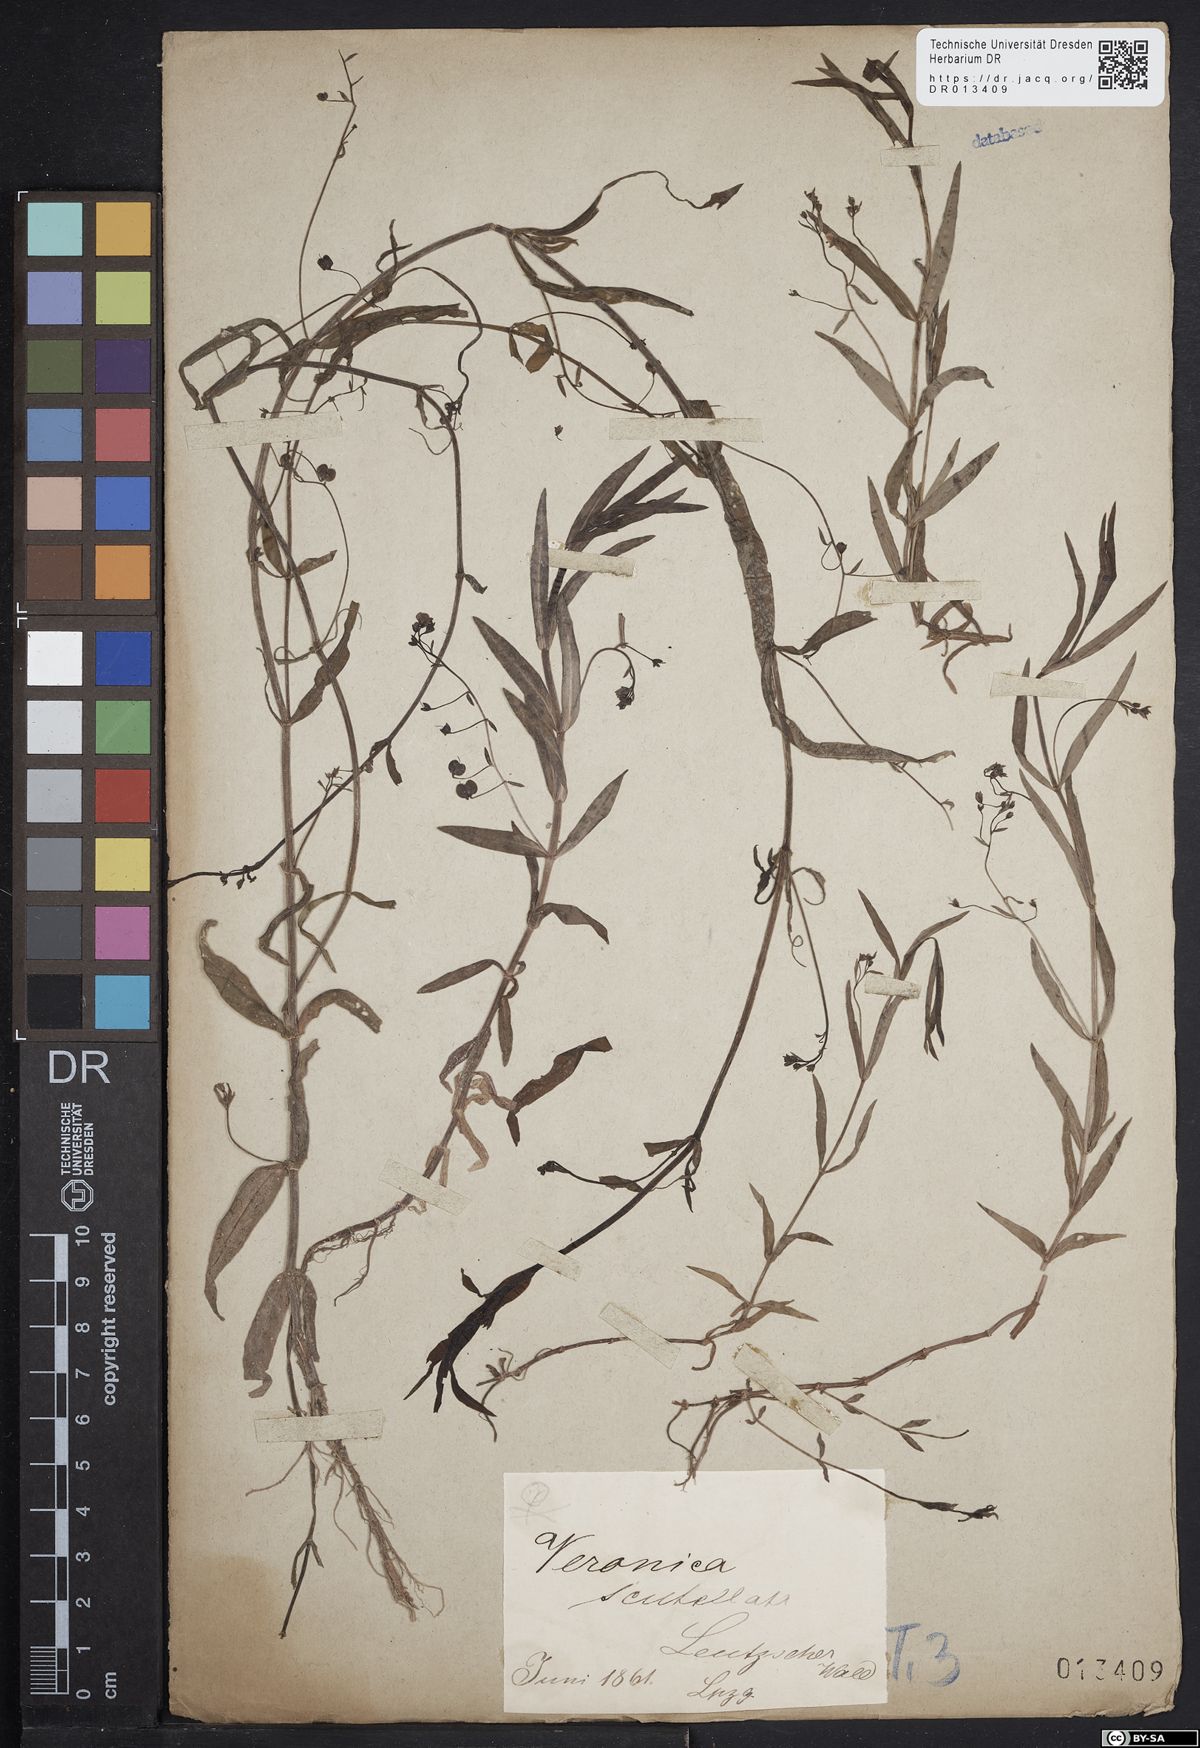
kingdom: Plantae
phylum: Tracheophyta
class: Magnoliopsida
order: Lamiales
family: Plantaginaceae
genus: Veronica
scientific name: Veronica scutellata
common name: Marsh speedwell
